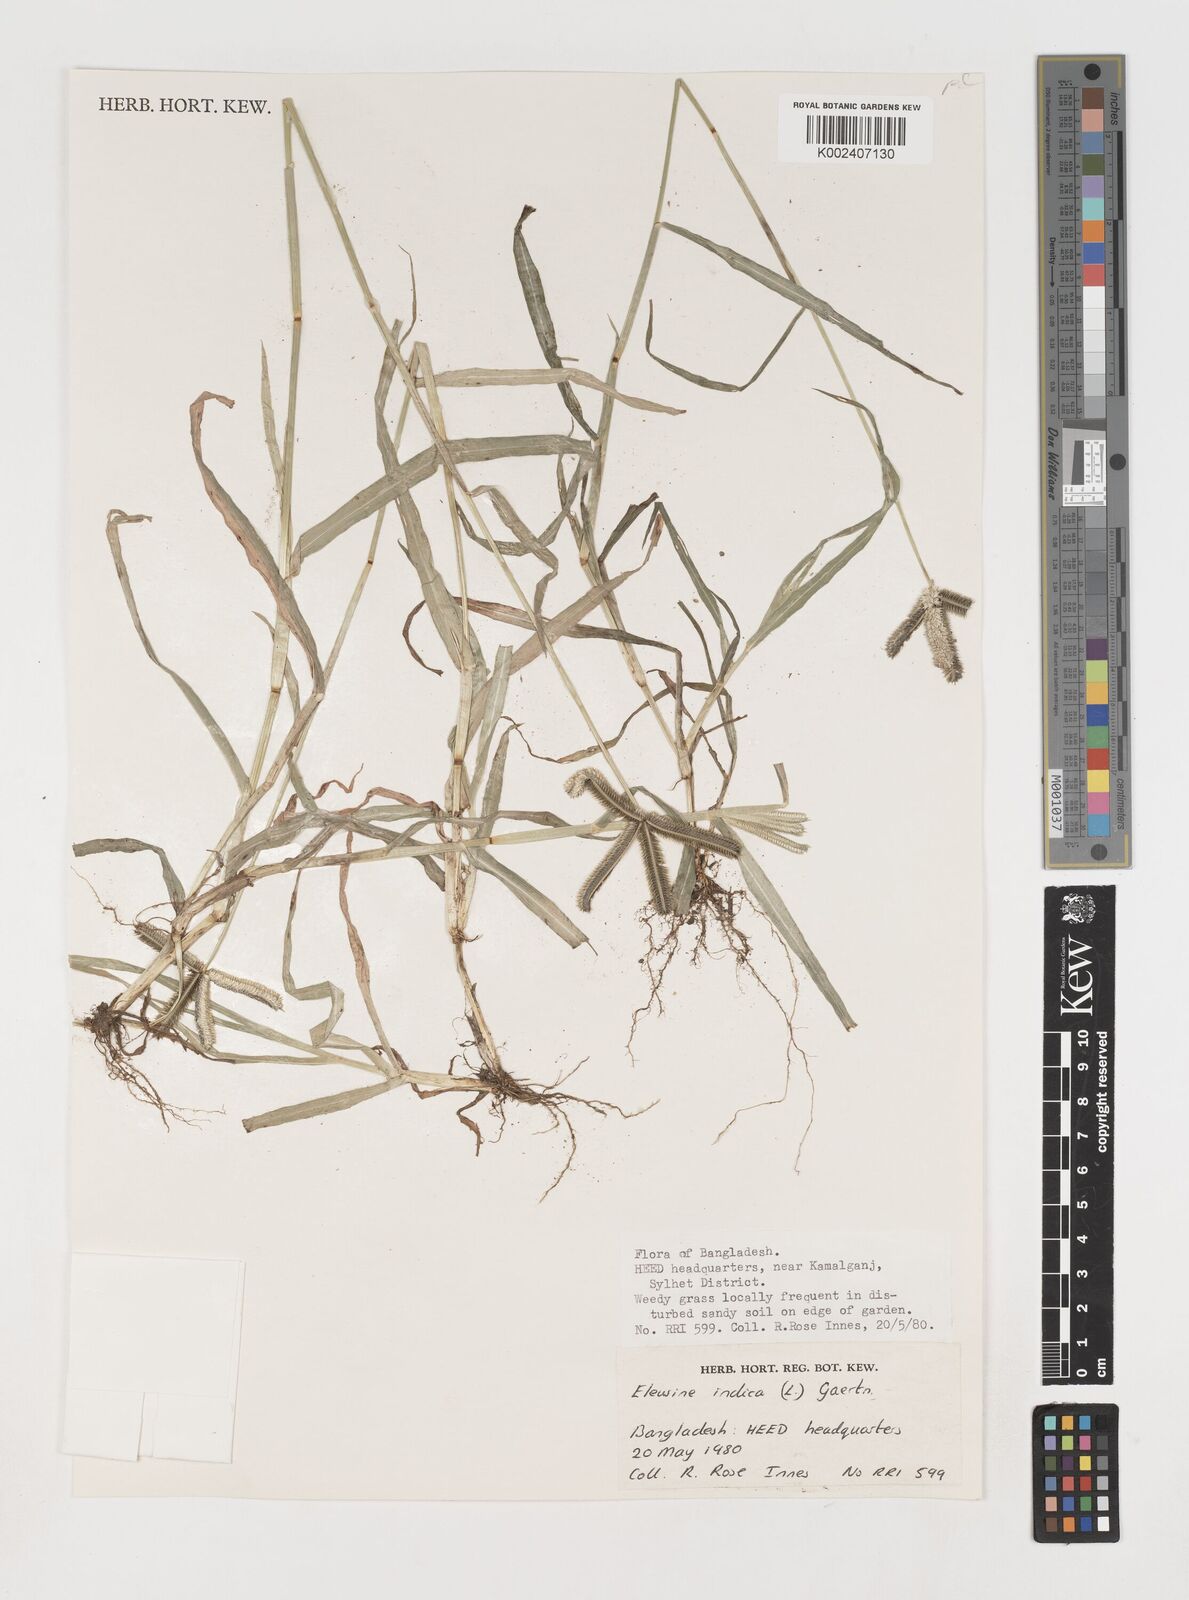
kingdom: Plantae
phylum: Tracheophyta
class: Liliopsida
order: Poales
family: Poaceae
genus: Eleusine
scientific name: Eleusine indica
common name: Yard-grass
